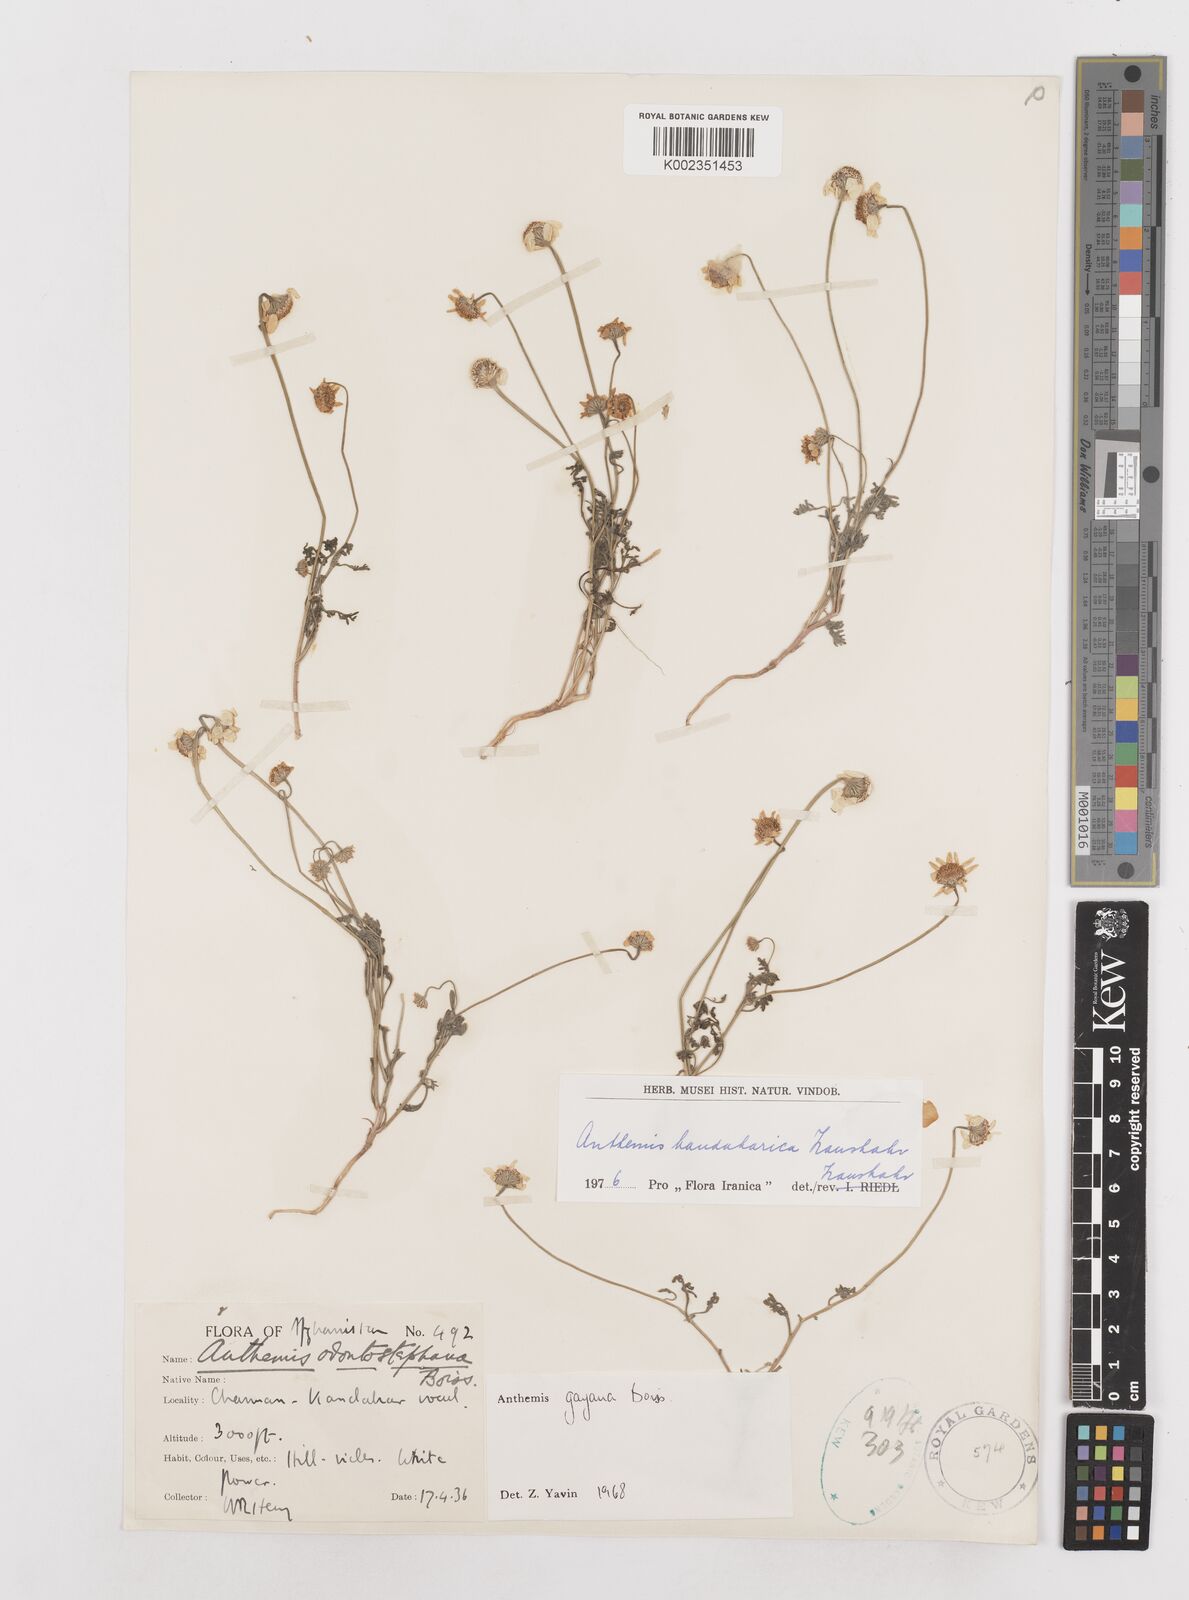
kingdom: Plantae
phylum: Tracheophyta
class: Magnoliopsida
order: Asterales
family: Asteraceae
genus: Anthemis
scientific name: Anthemis gayana
